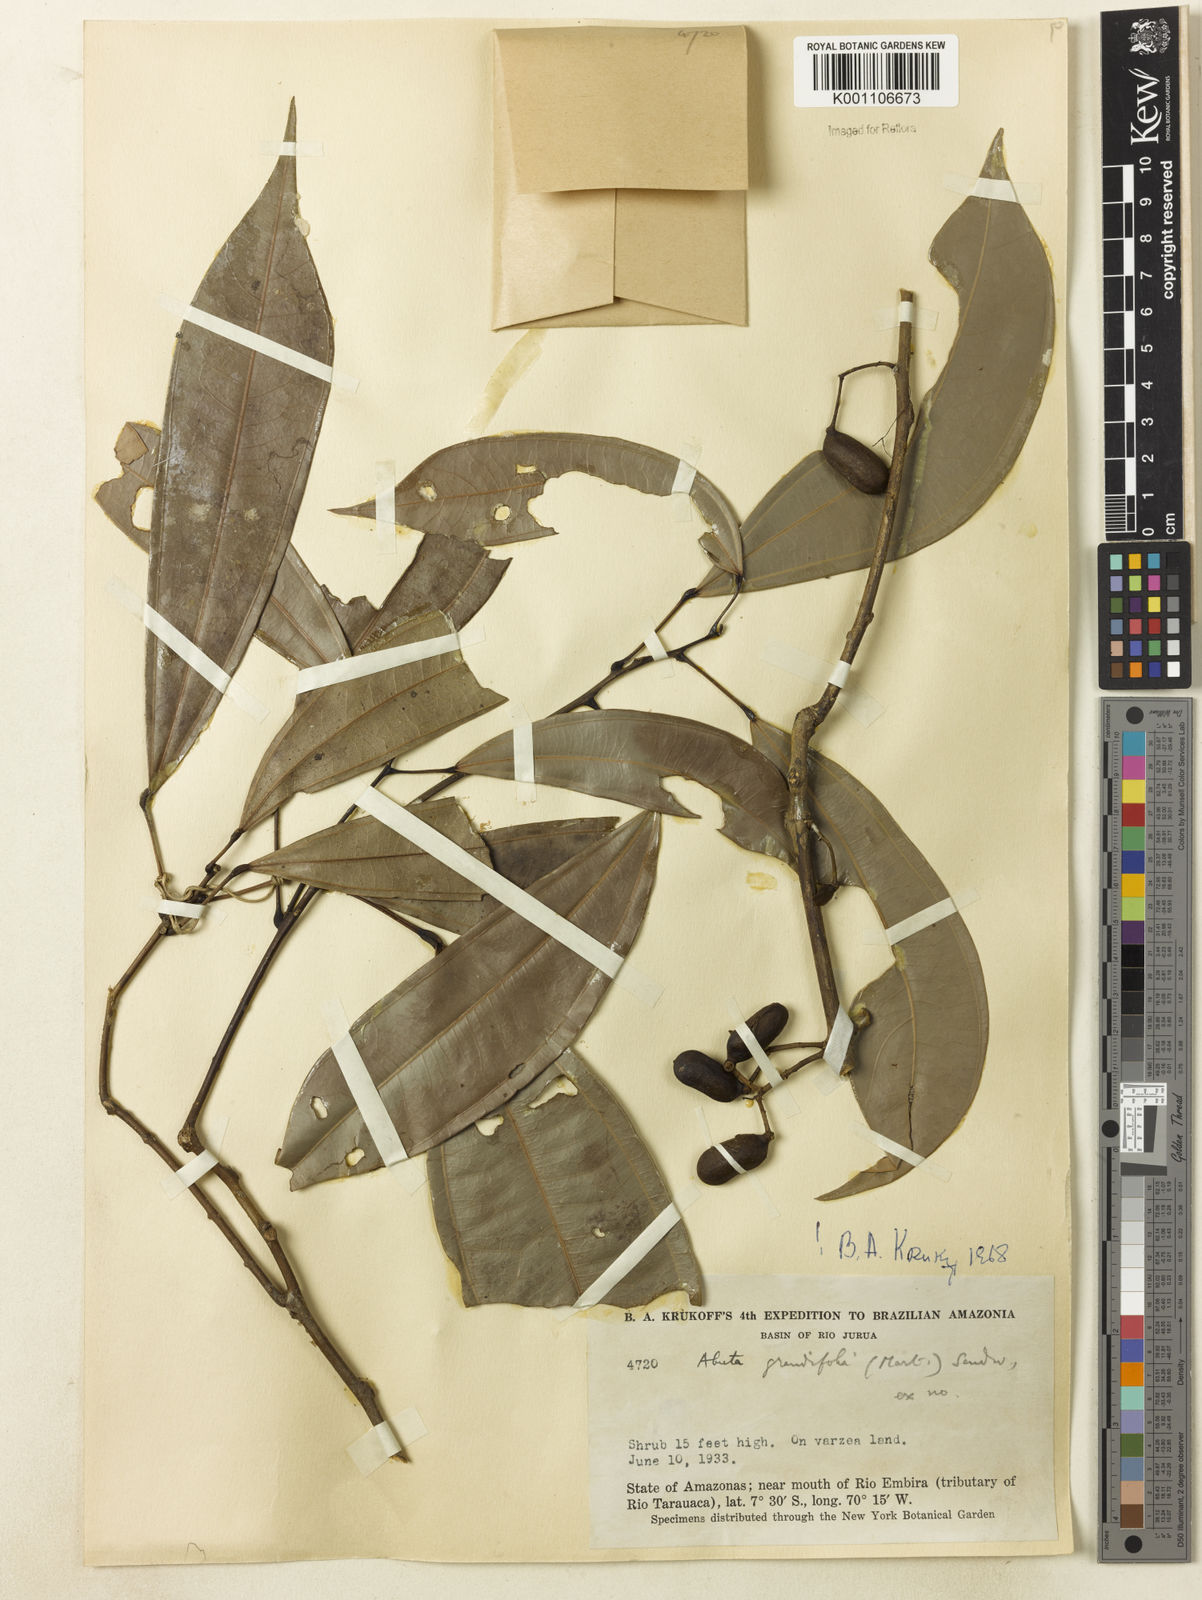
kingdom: Plantae
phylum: Tracheophyta
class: Magnoliopsida
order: Ranunculales
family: Menispermaceae
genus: Abuta
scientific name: Abuta grandifolia
